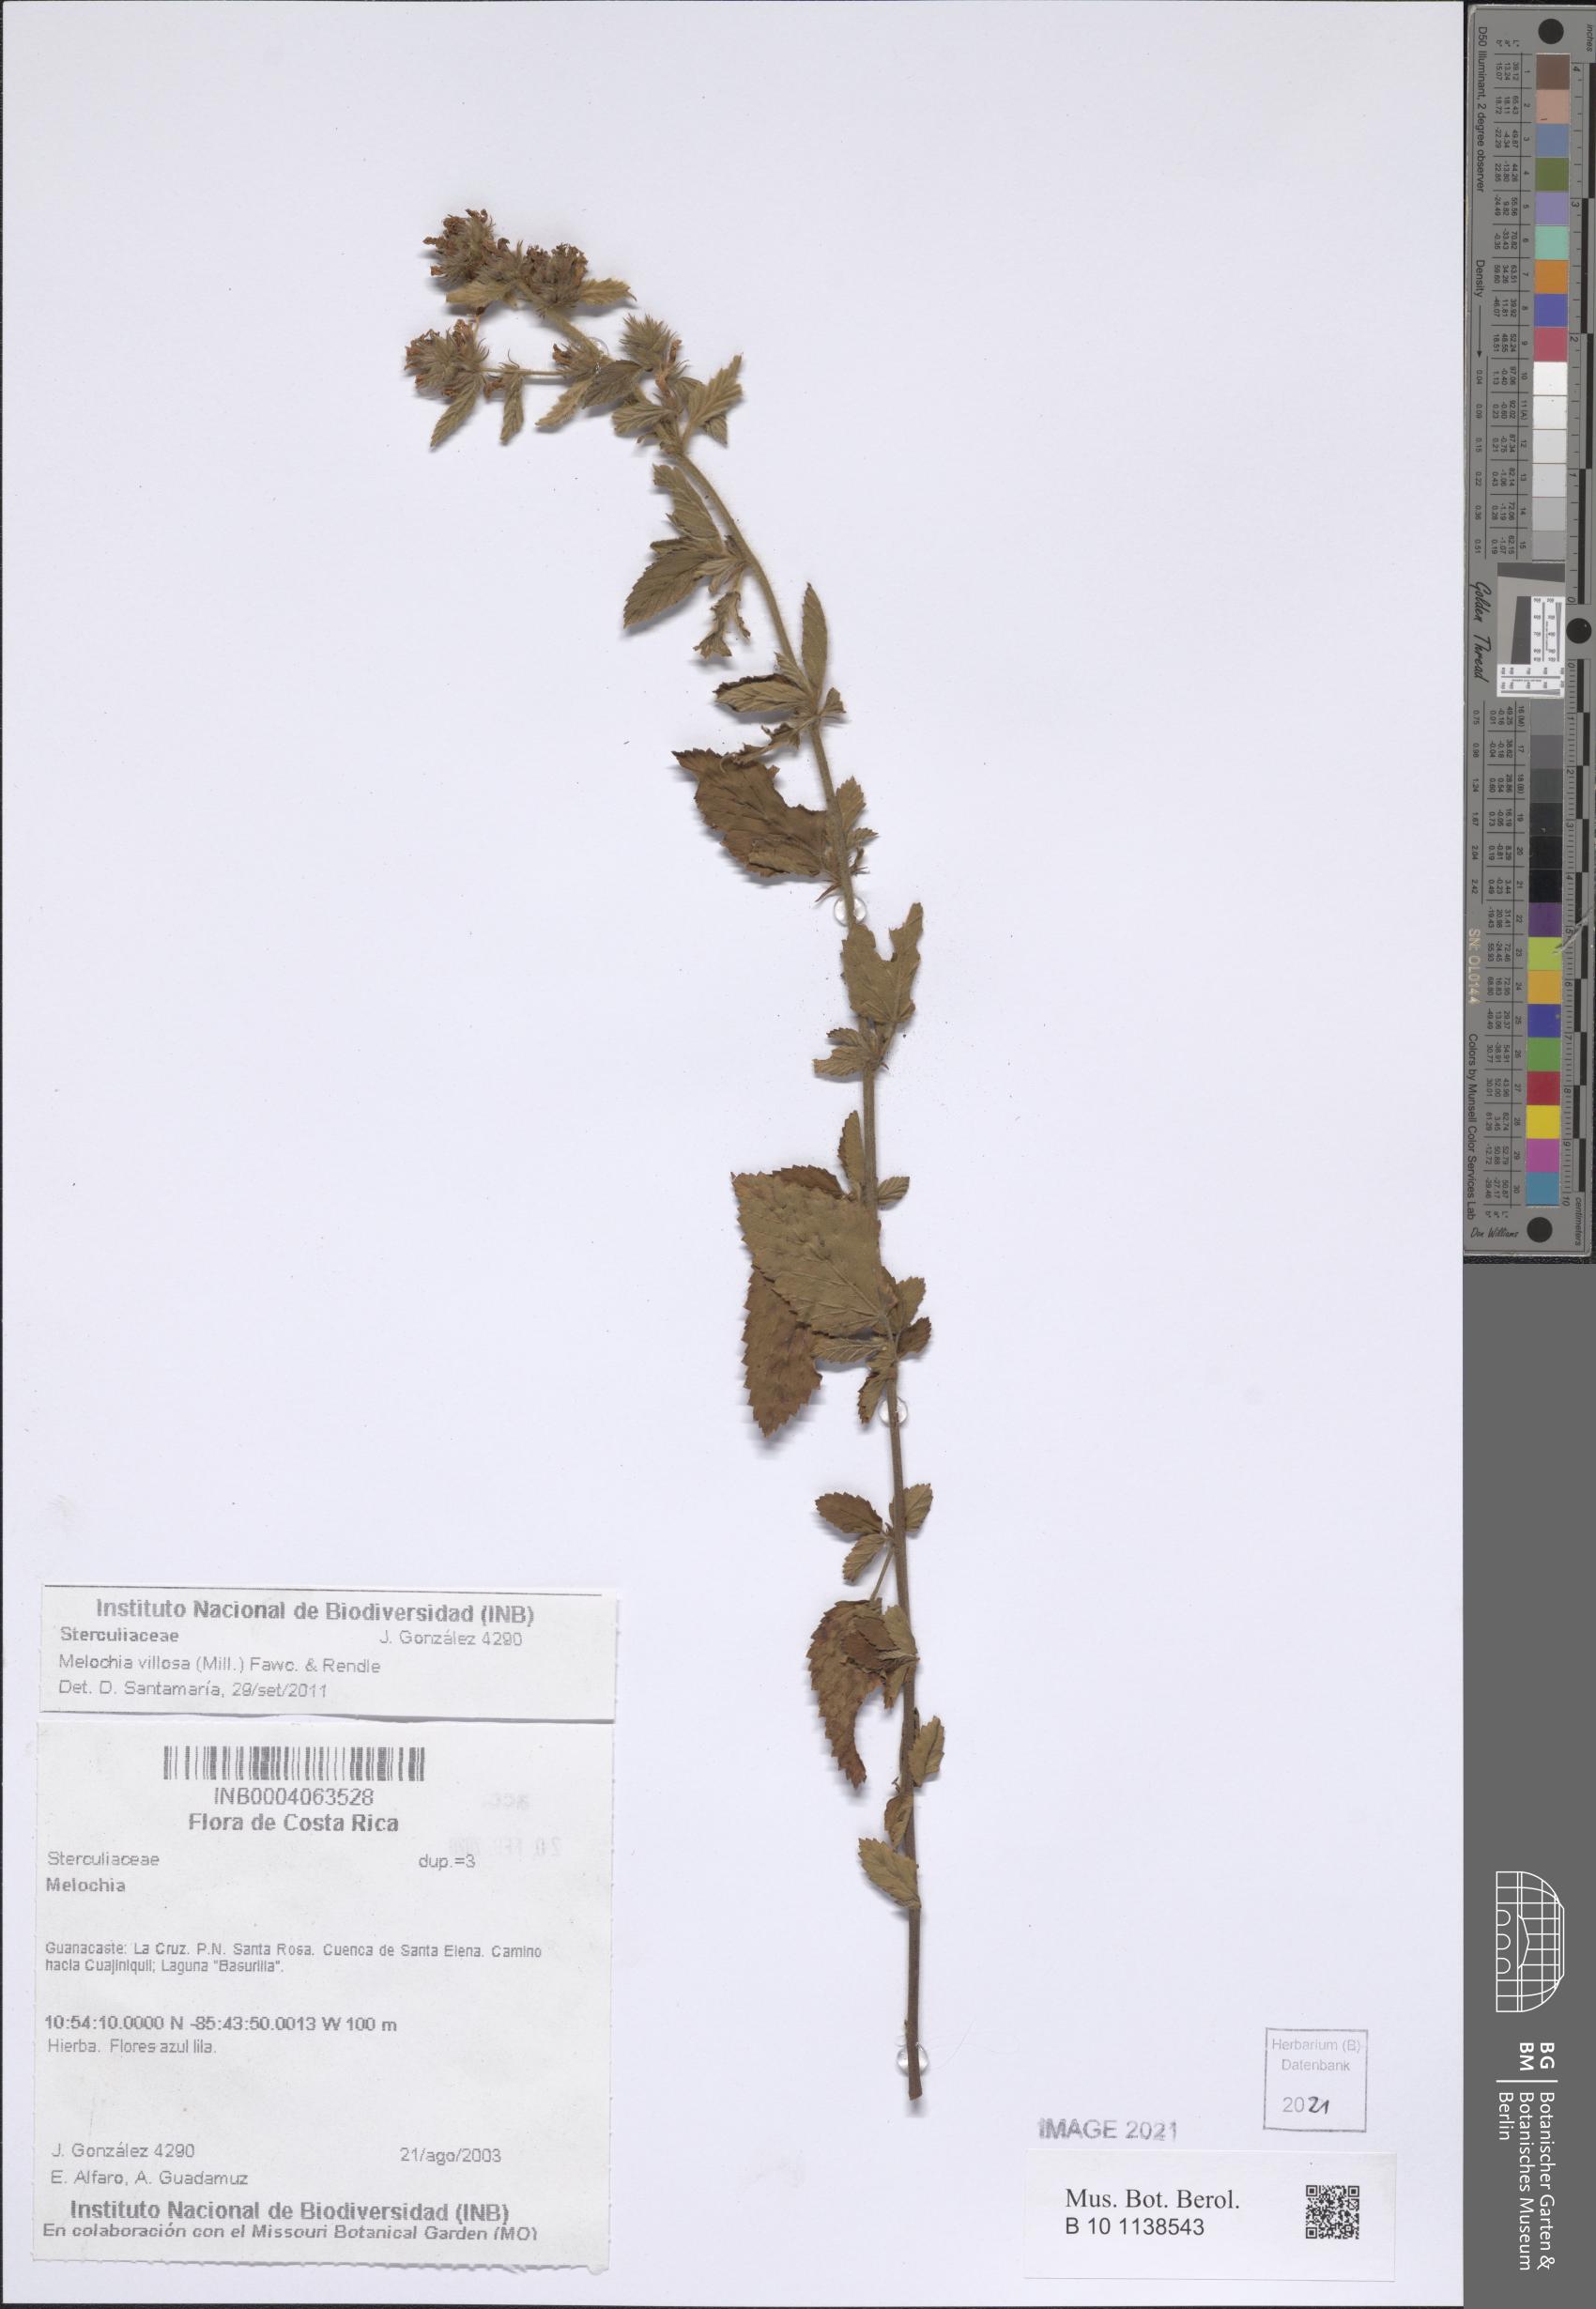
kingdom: Plantae
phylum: Tracheophyta
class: Magnoliopsida
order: Malvales
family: Malvaceae
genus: Melochia
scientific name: Melochia spicata
